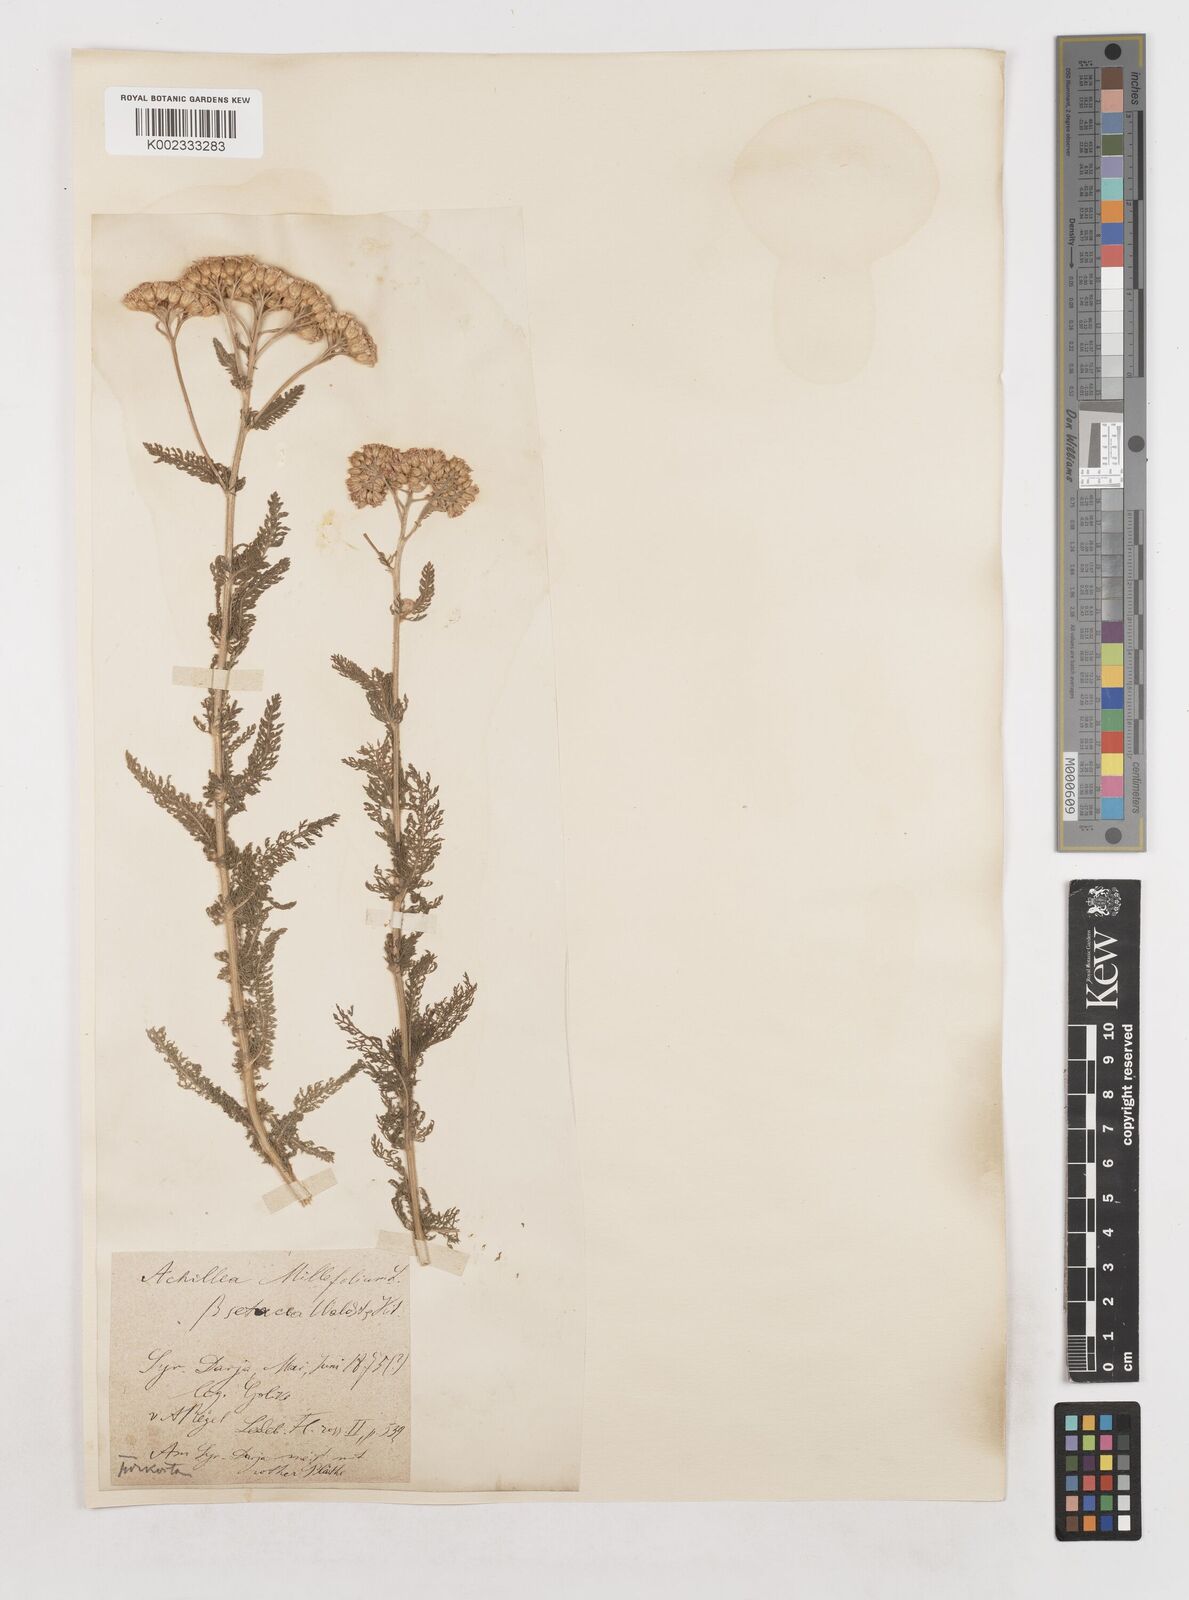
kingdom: Plantae
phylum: Tracheophyta
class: Magnoliopsida
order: Asterales
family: Asteraceae
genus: Achillea
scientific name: Achillea setacea
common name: Bristly yarrow
